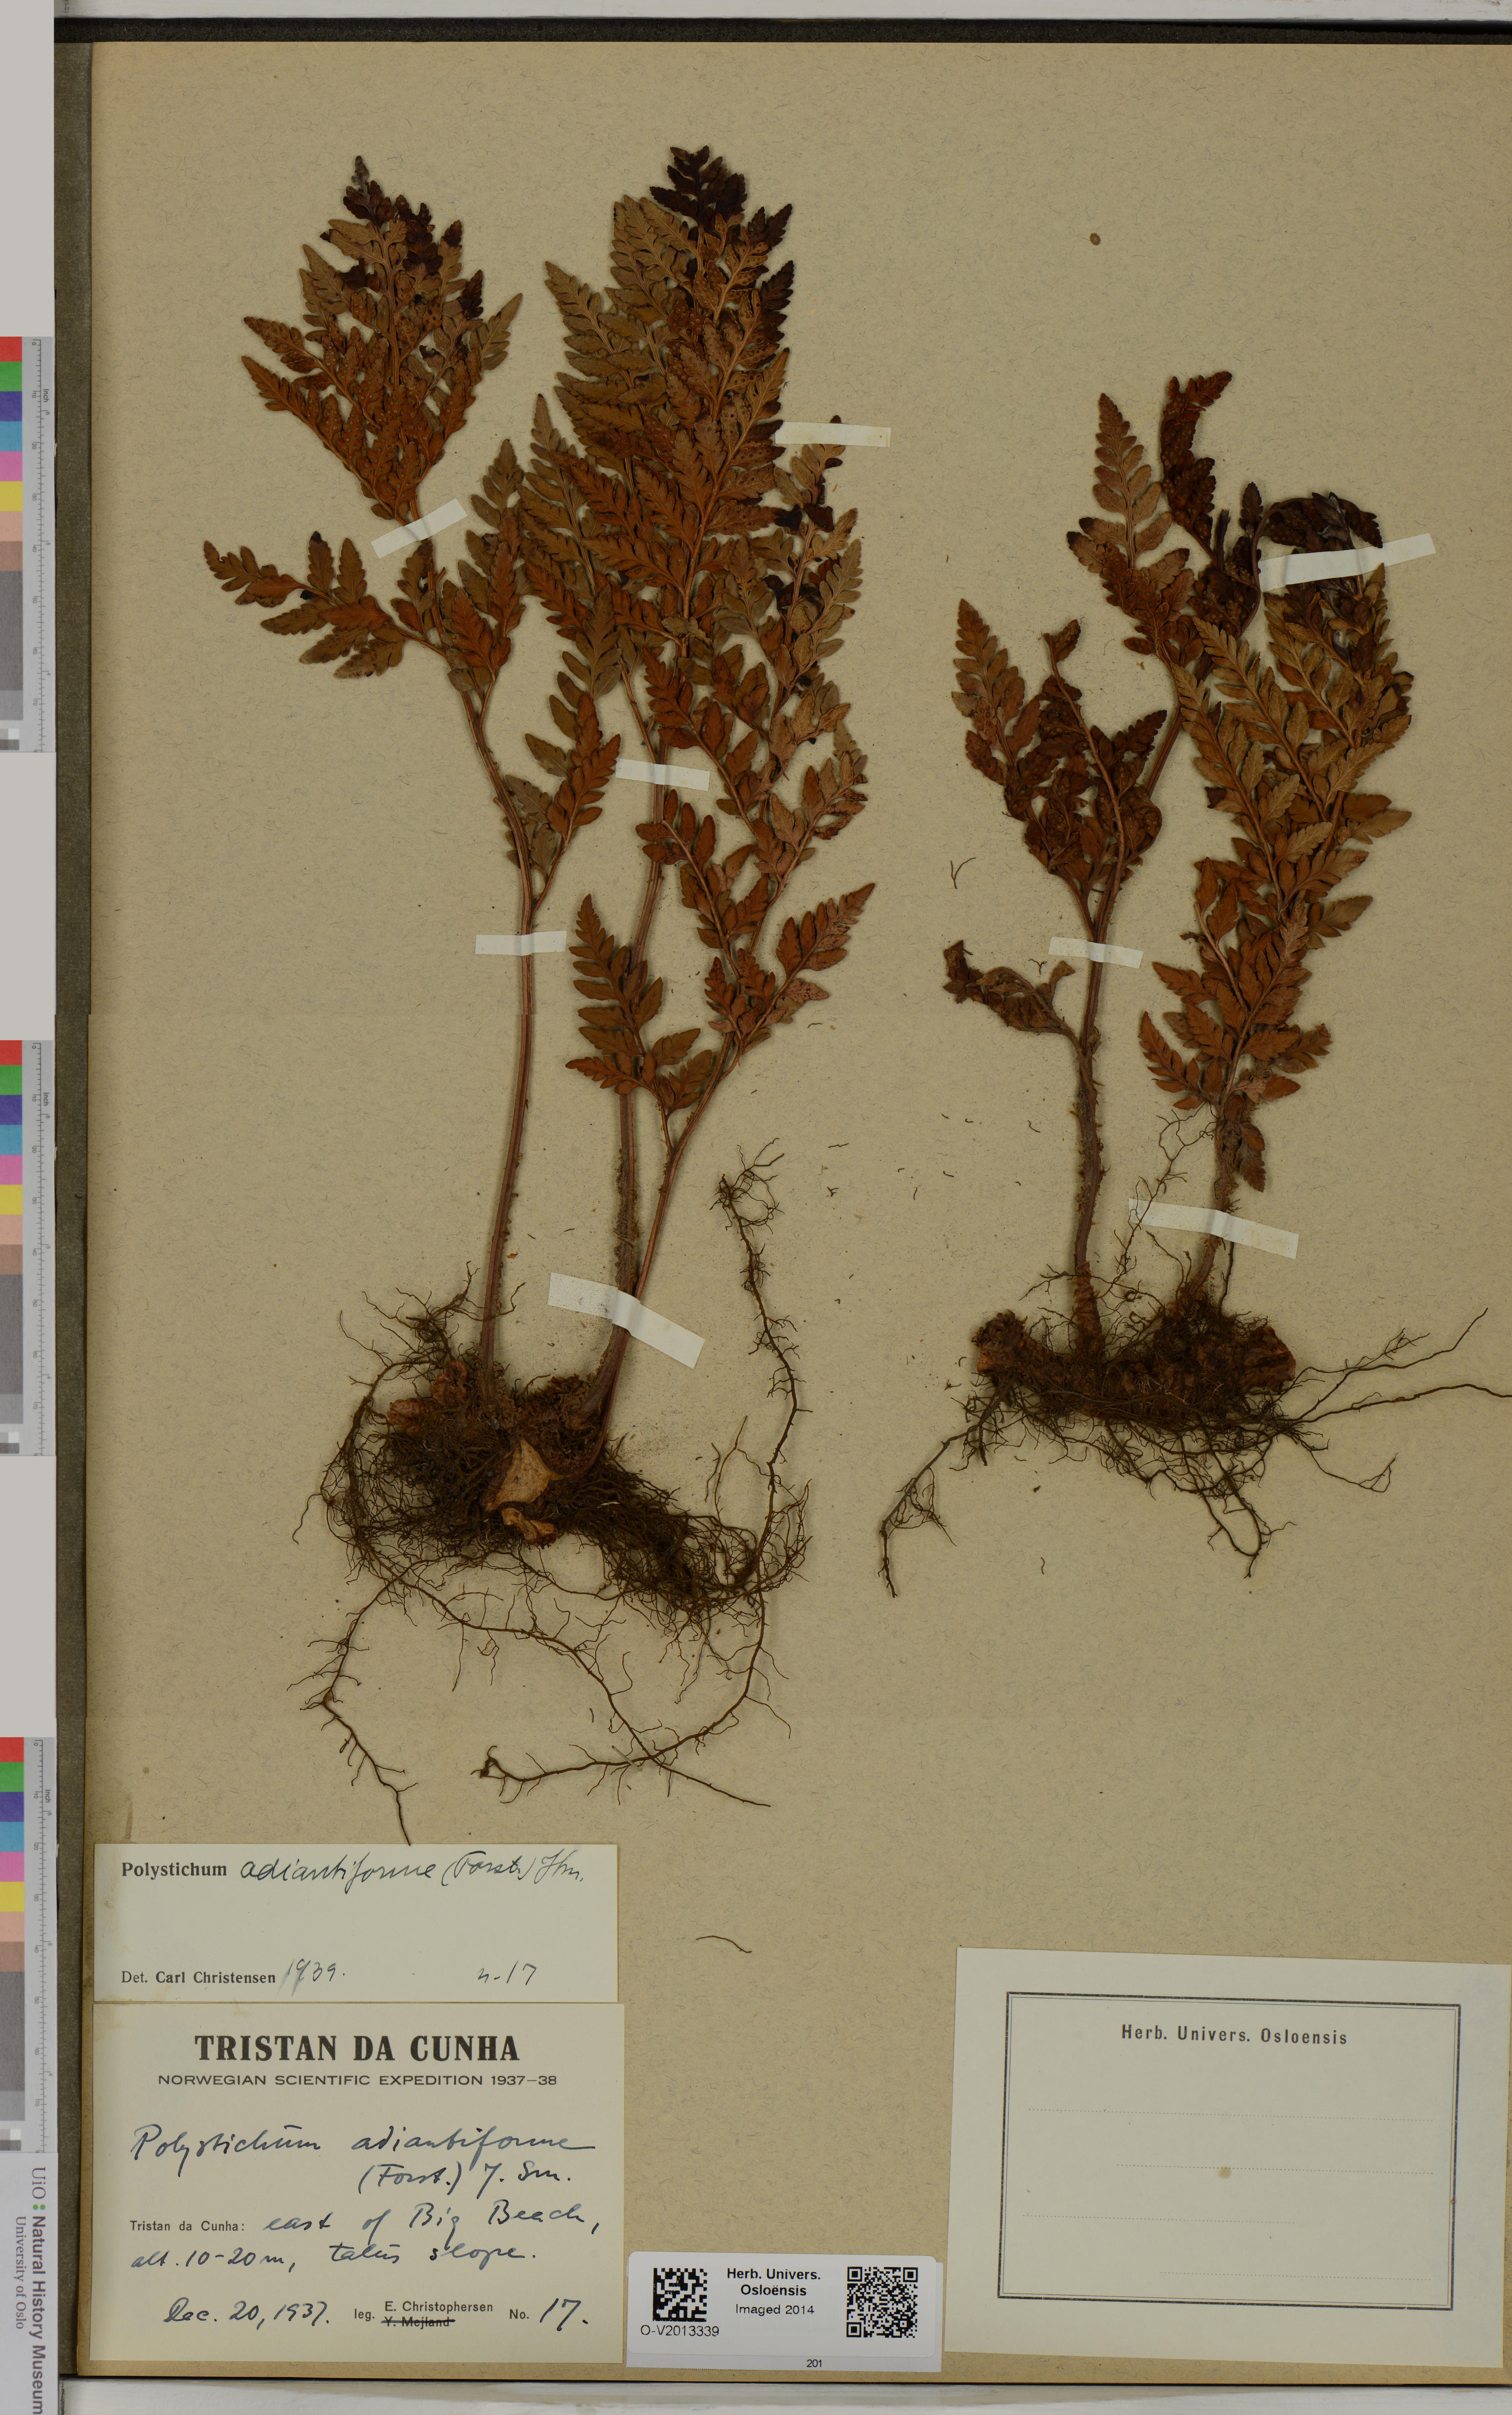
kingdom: Plantae
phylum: Tracheophyta
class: Polypodiopsida
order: Polypodiales
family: Dryopteridaceae
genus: Rumohra
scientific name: Rumohra adiantiformis
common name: Leather fern
